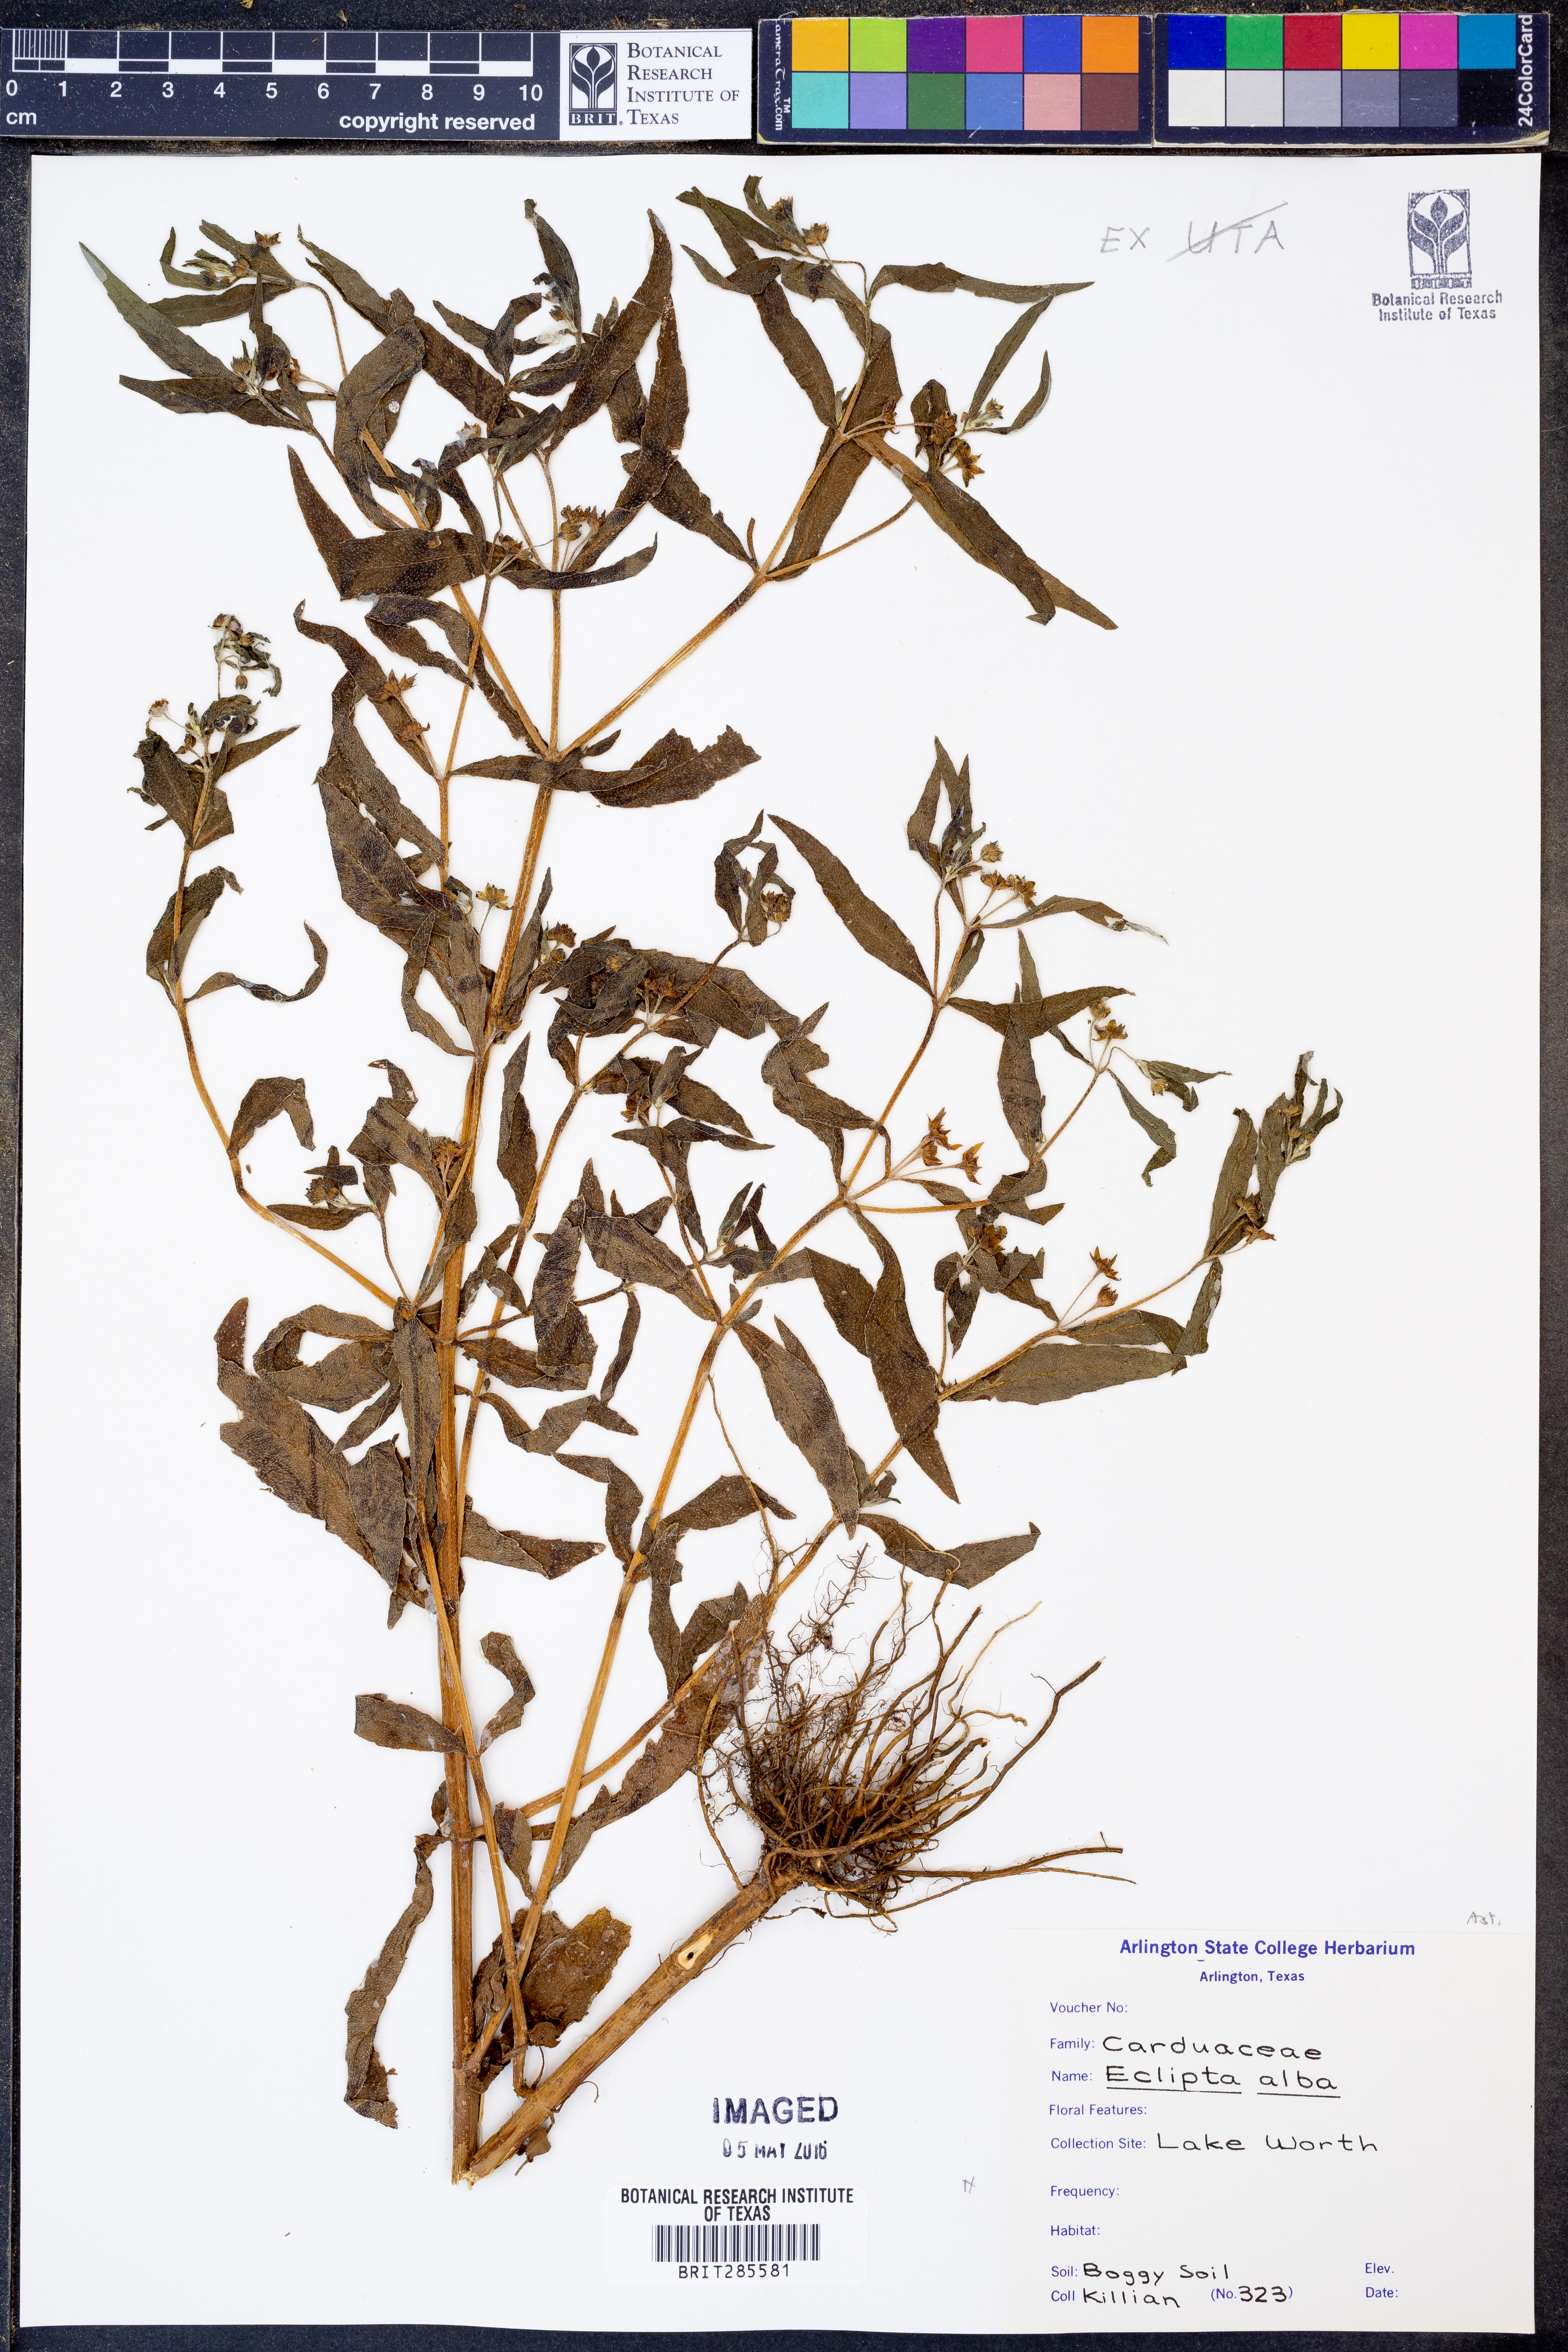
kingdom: Plantae
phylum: Tracheophyta
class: Magnoliopsida
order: Asterales
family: Asteraceae
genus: Eclipta
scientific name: Eclipta alba
